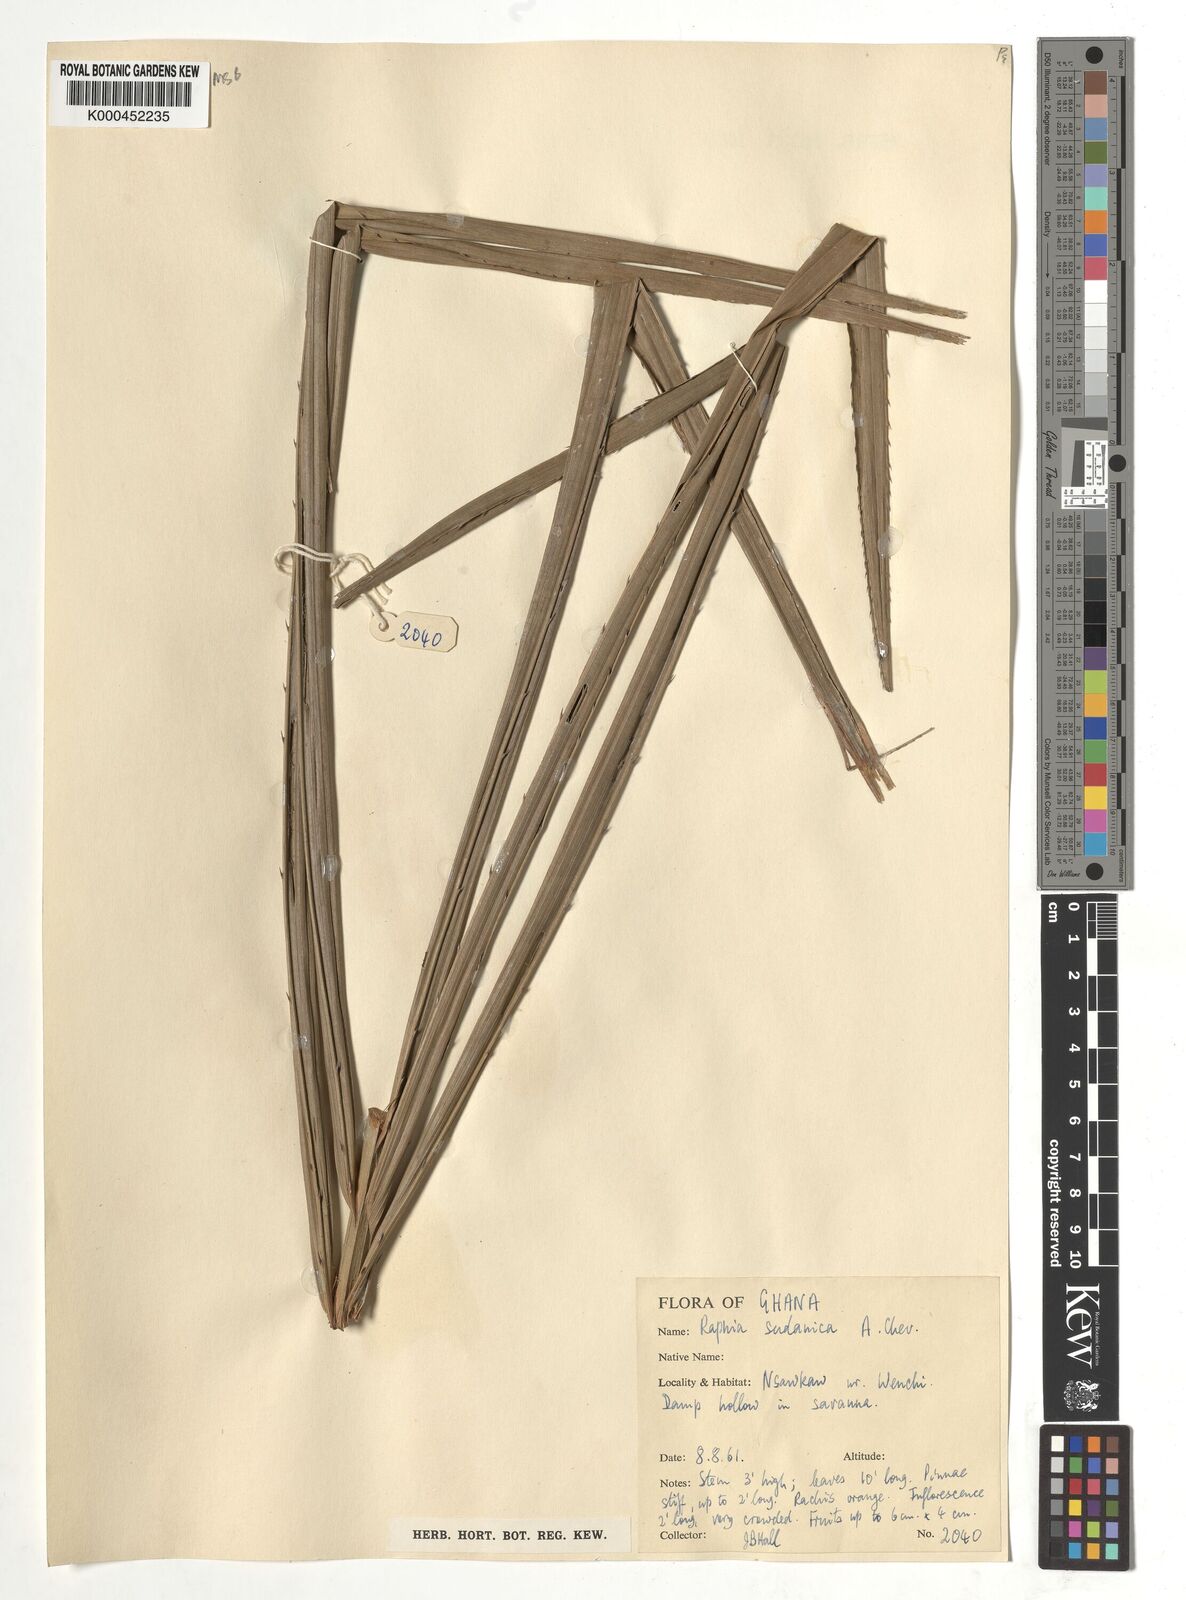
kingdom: Plantae
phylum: Tracheophyta
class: Liliopsida
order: Arecales
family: Arecaceae
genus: Raphia
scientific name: Raphia sudanica
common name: Northern raphia
